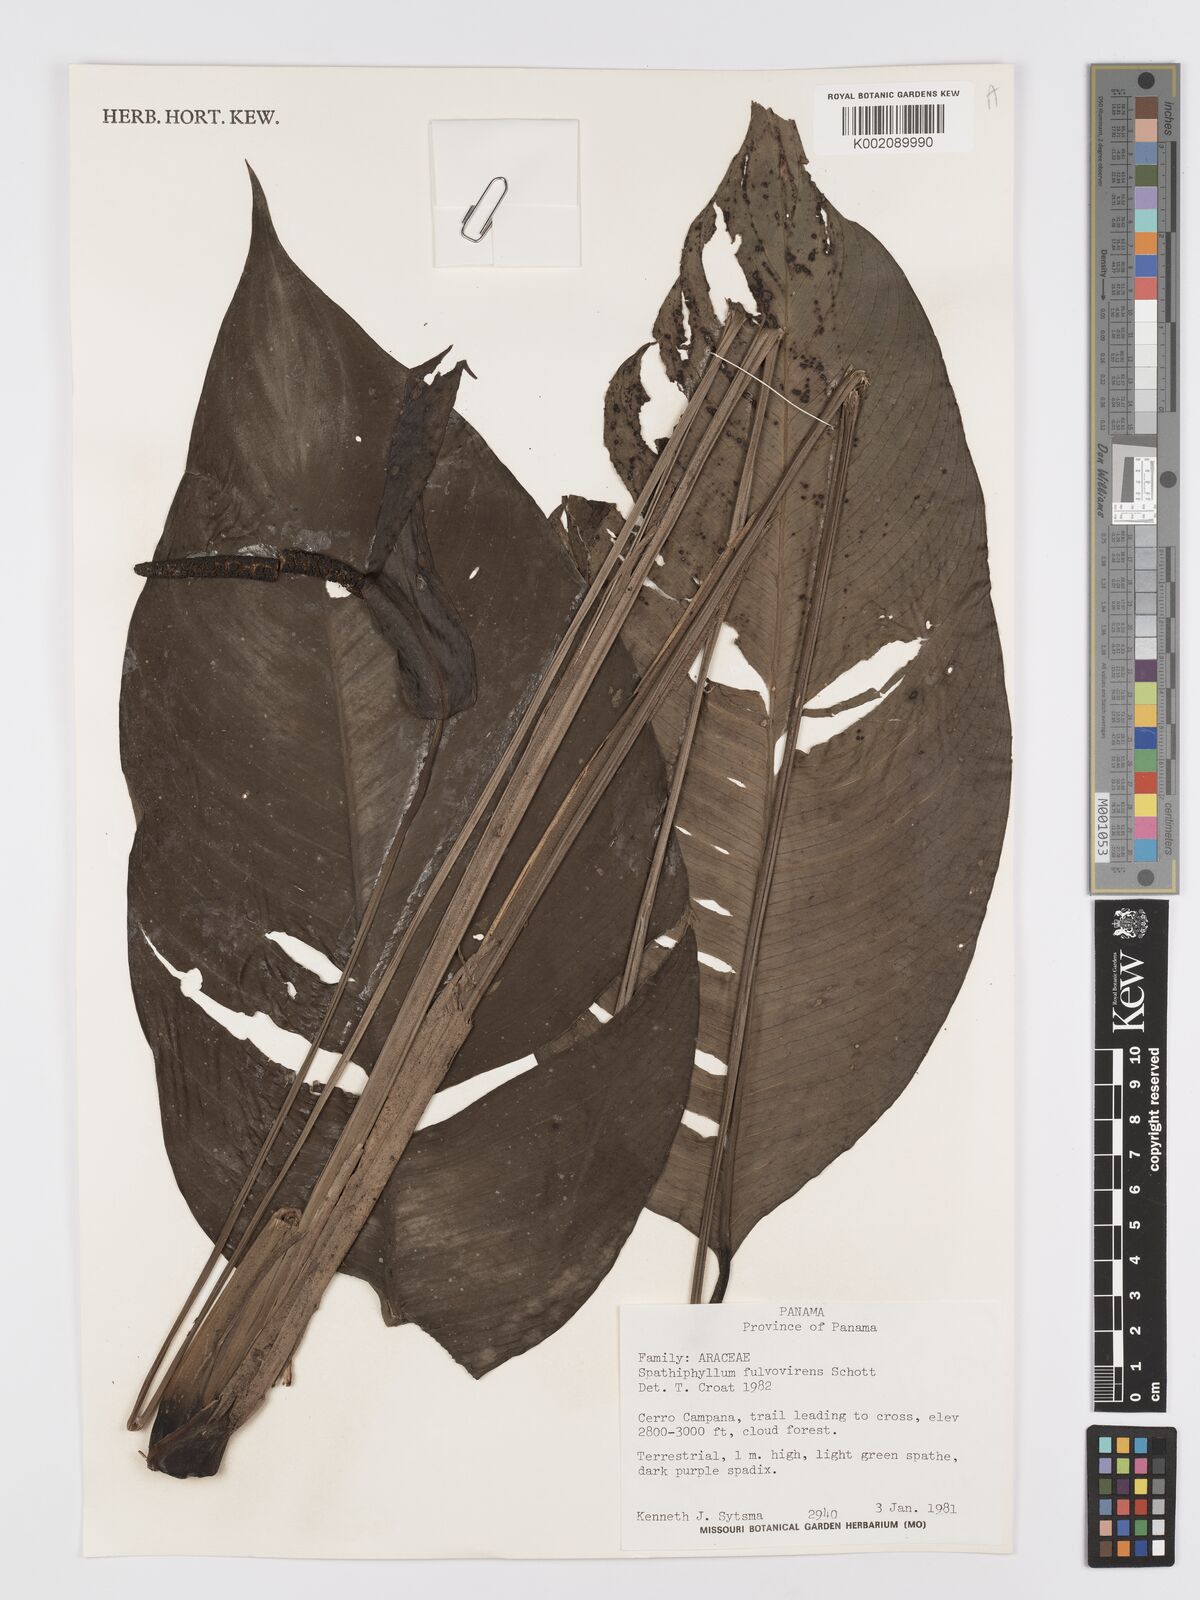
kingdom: Plantae
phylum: Tracheophyta
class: Liliopsida
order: Alismatales
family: Araceae
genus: Spathiphyllum
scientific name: Spathiphyllum fulvovirens
